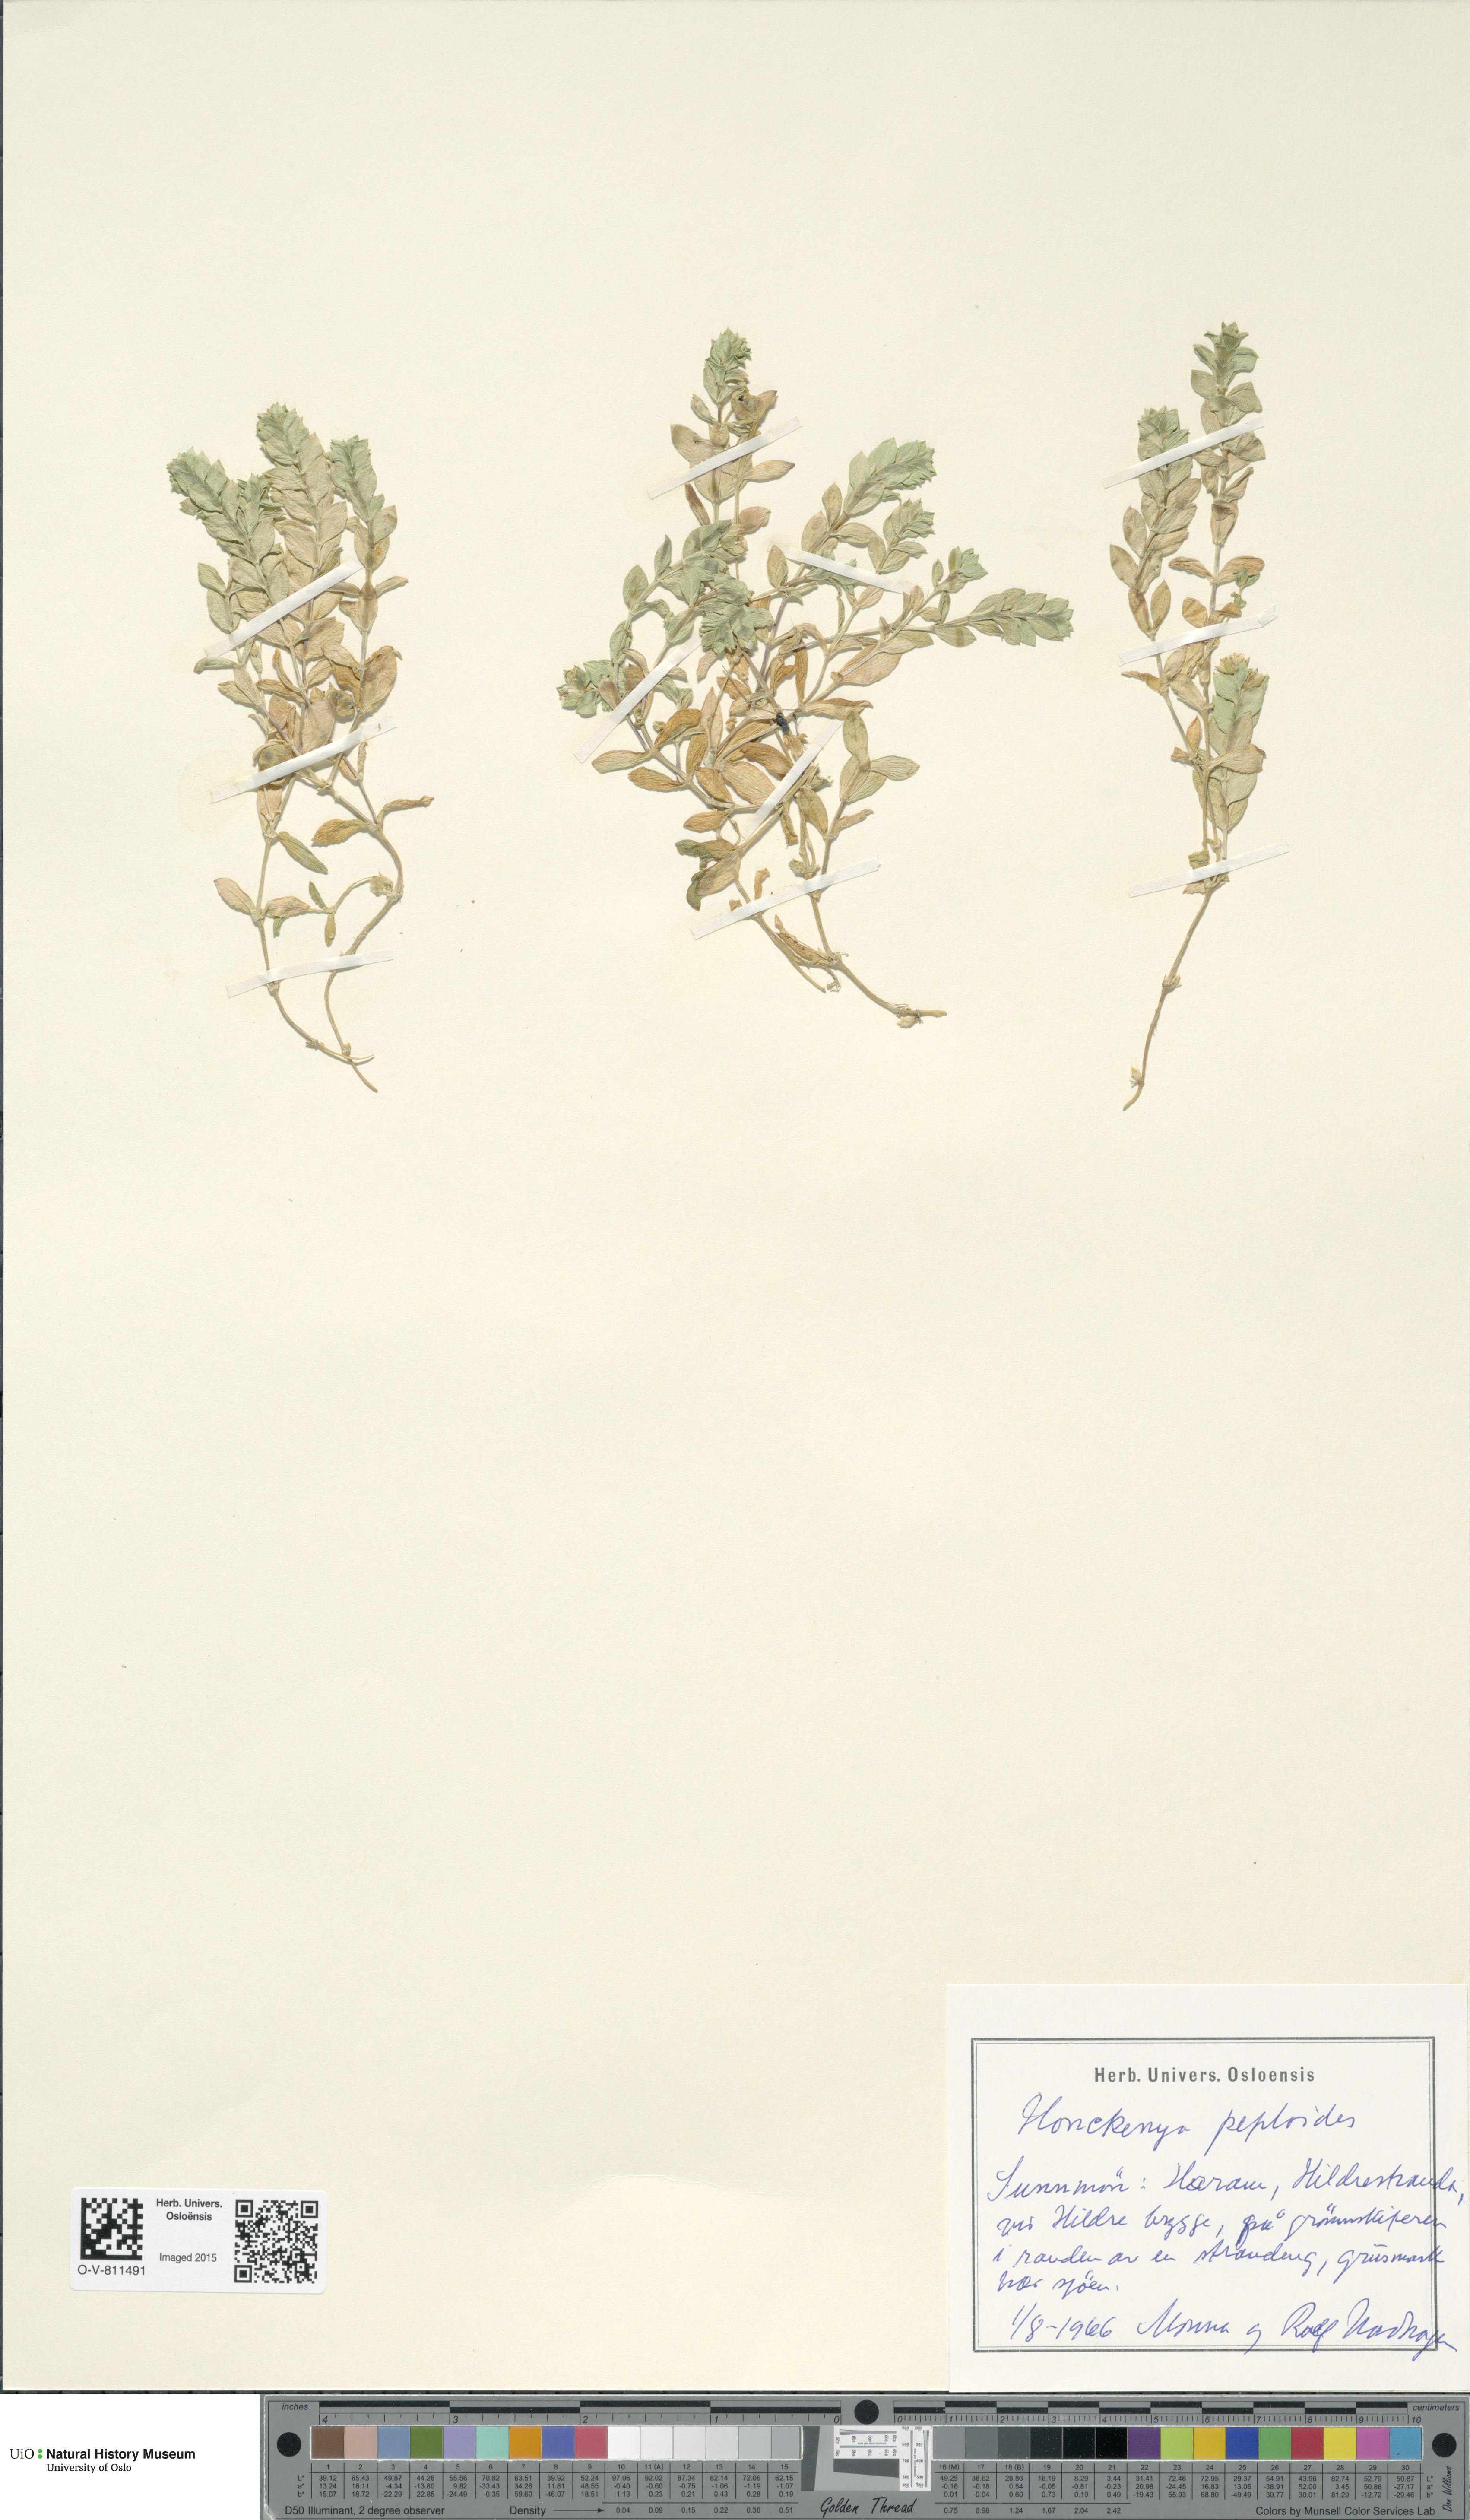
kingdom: Plantae
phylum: Tracheophyta
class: Magnoliopsida
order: Caryophyllales
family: Caryophyllaceae
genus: Honckenya
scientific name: Honckenya peploides
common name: Sea sandwort
